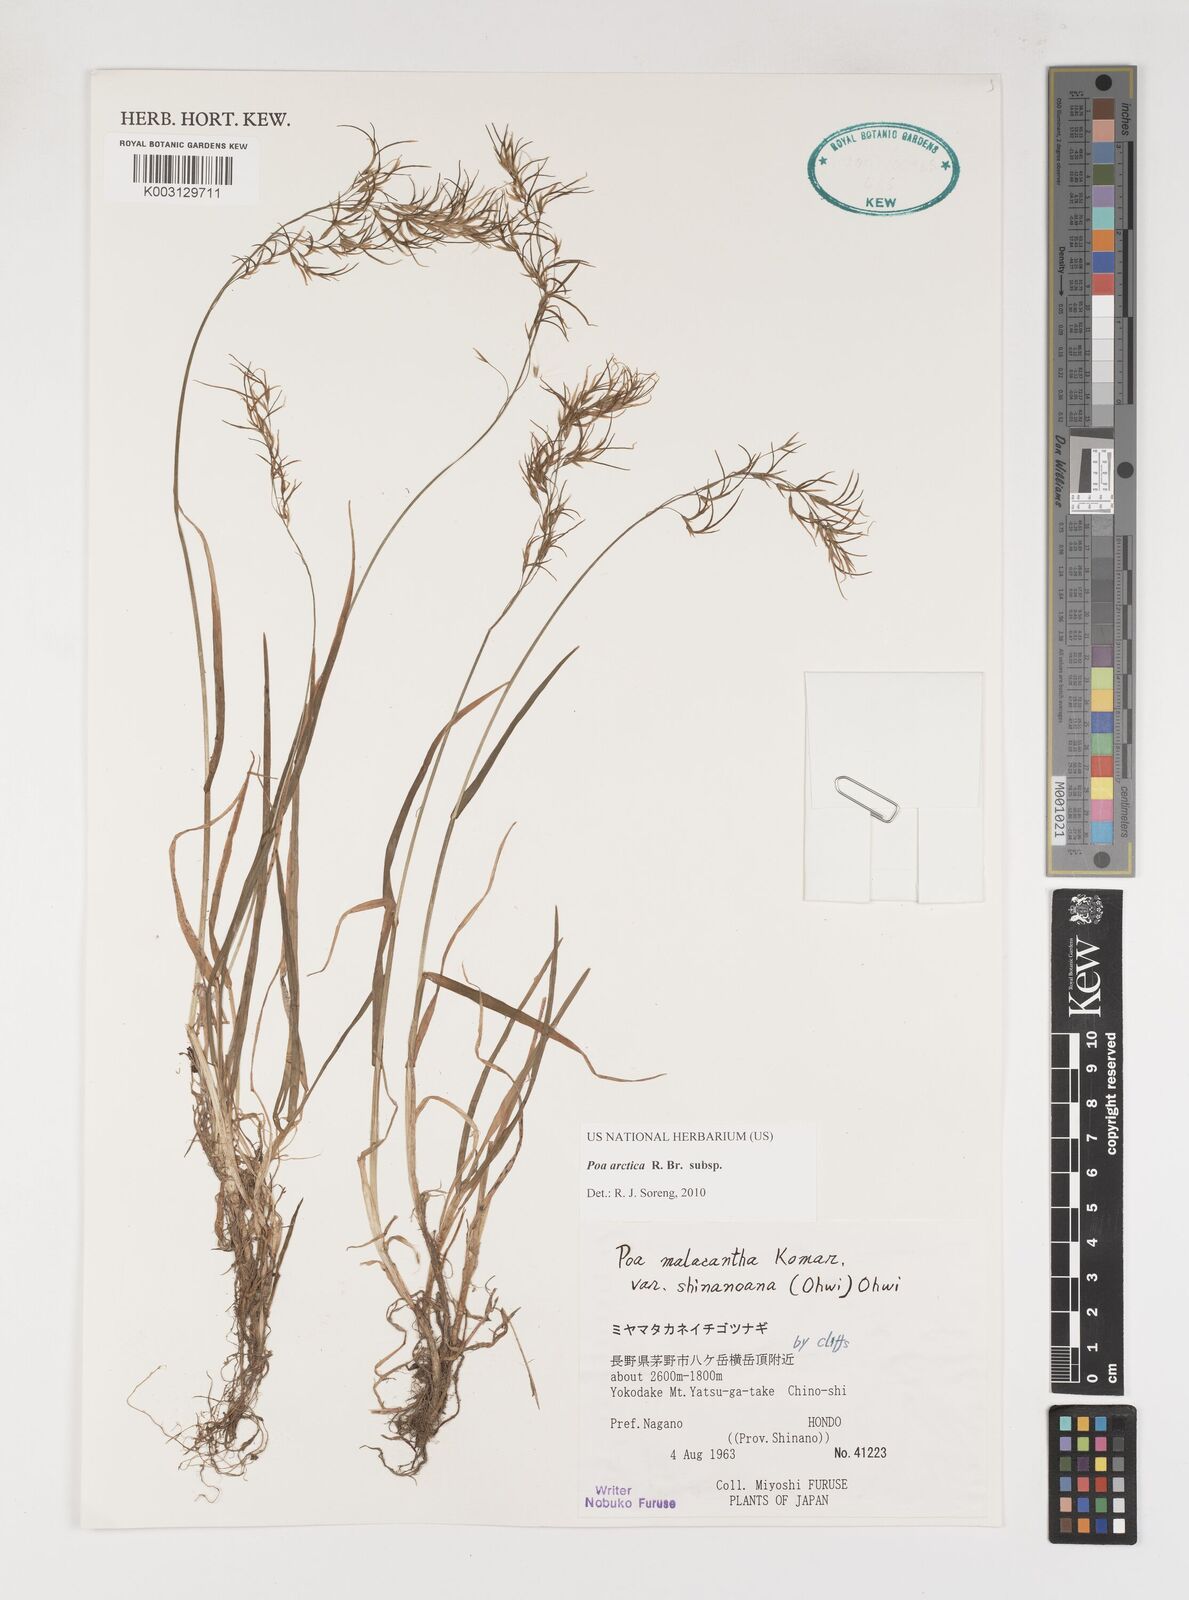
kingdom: Plantae
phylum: Tracheophyta
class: Liliopsida
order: Poales
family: Poaceae
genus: Poa
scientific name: Poa arctica
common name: Arctic bluegrass
